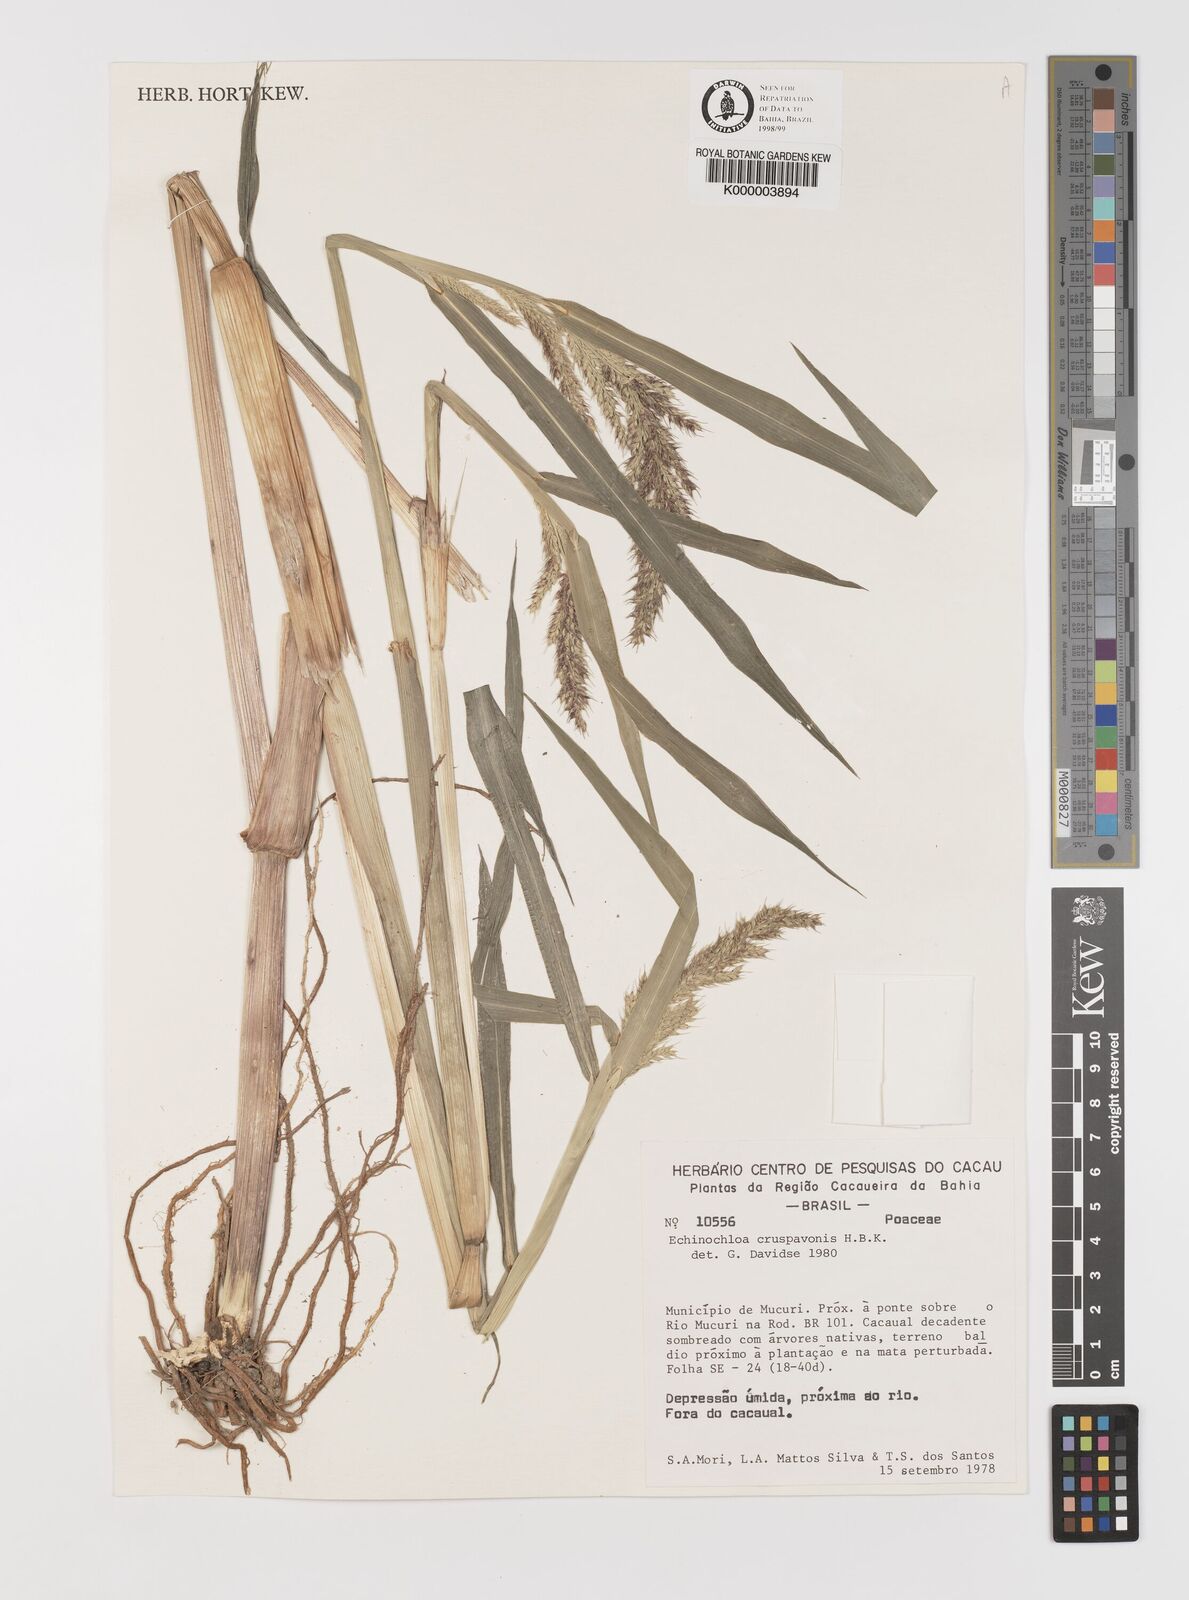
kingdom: Plantae
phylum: Tracheophyta
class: Liliopsida
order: Poales
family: Poaceae
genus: Echinochloa
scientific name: Echinochloa crus-pavonis
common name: Gulf cockspur grass
